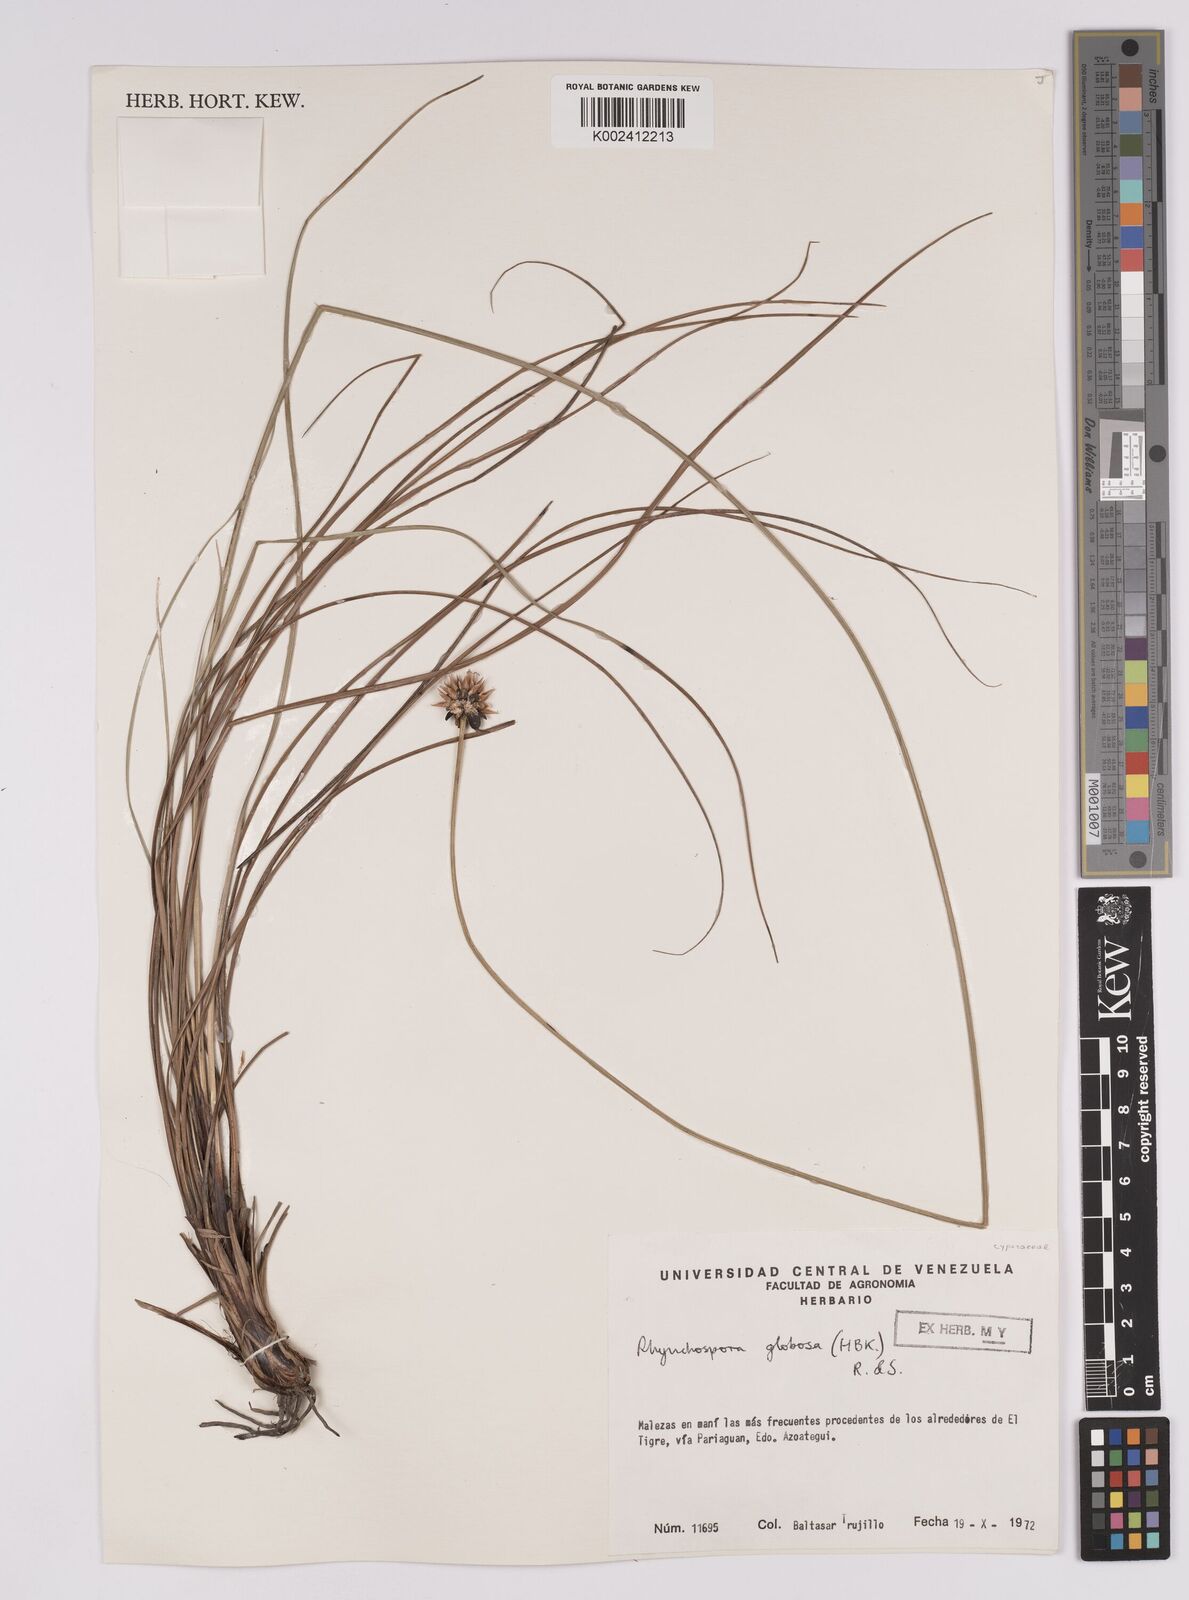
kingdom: Plantae
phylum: Tracheophyta
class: Liliopsida
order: Poales
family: Cyperaceae
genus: Rhynchospora
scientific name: Rhynchospora globosa
